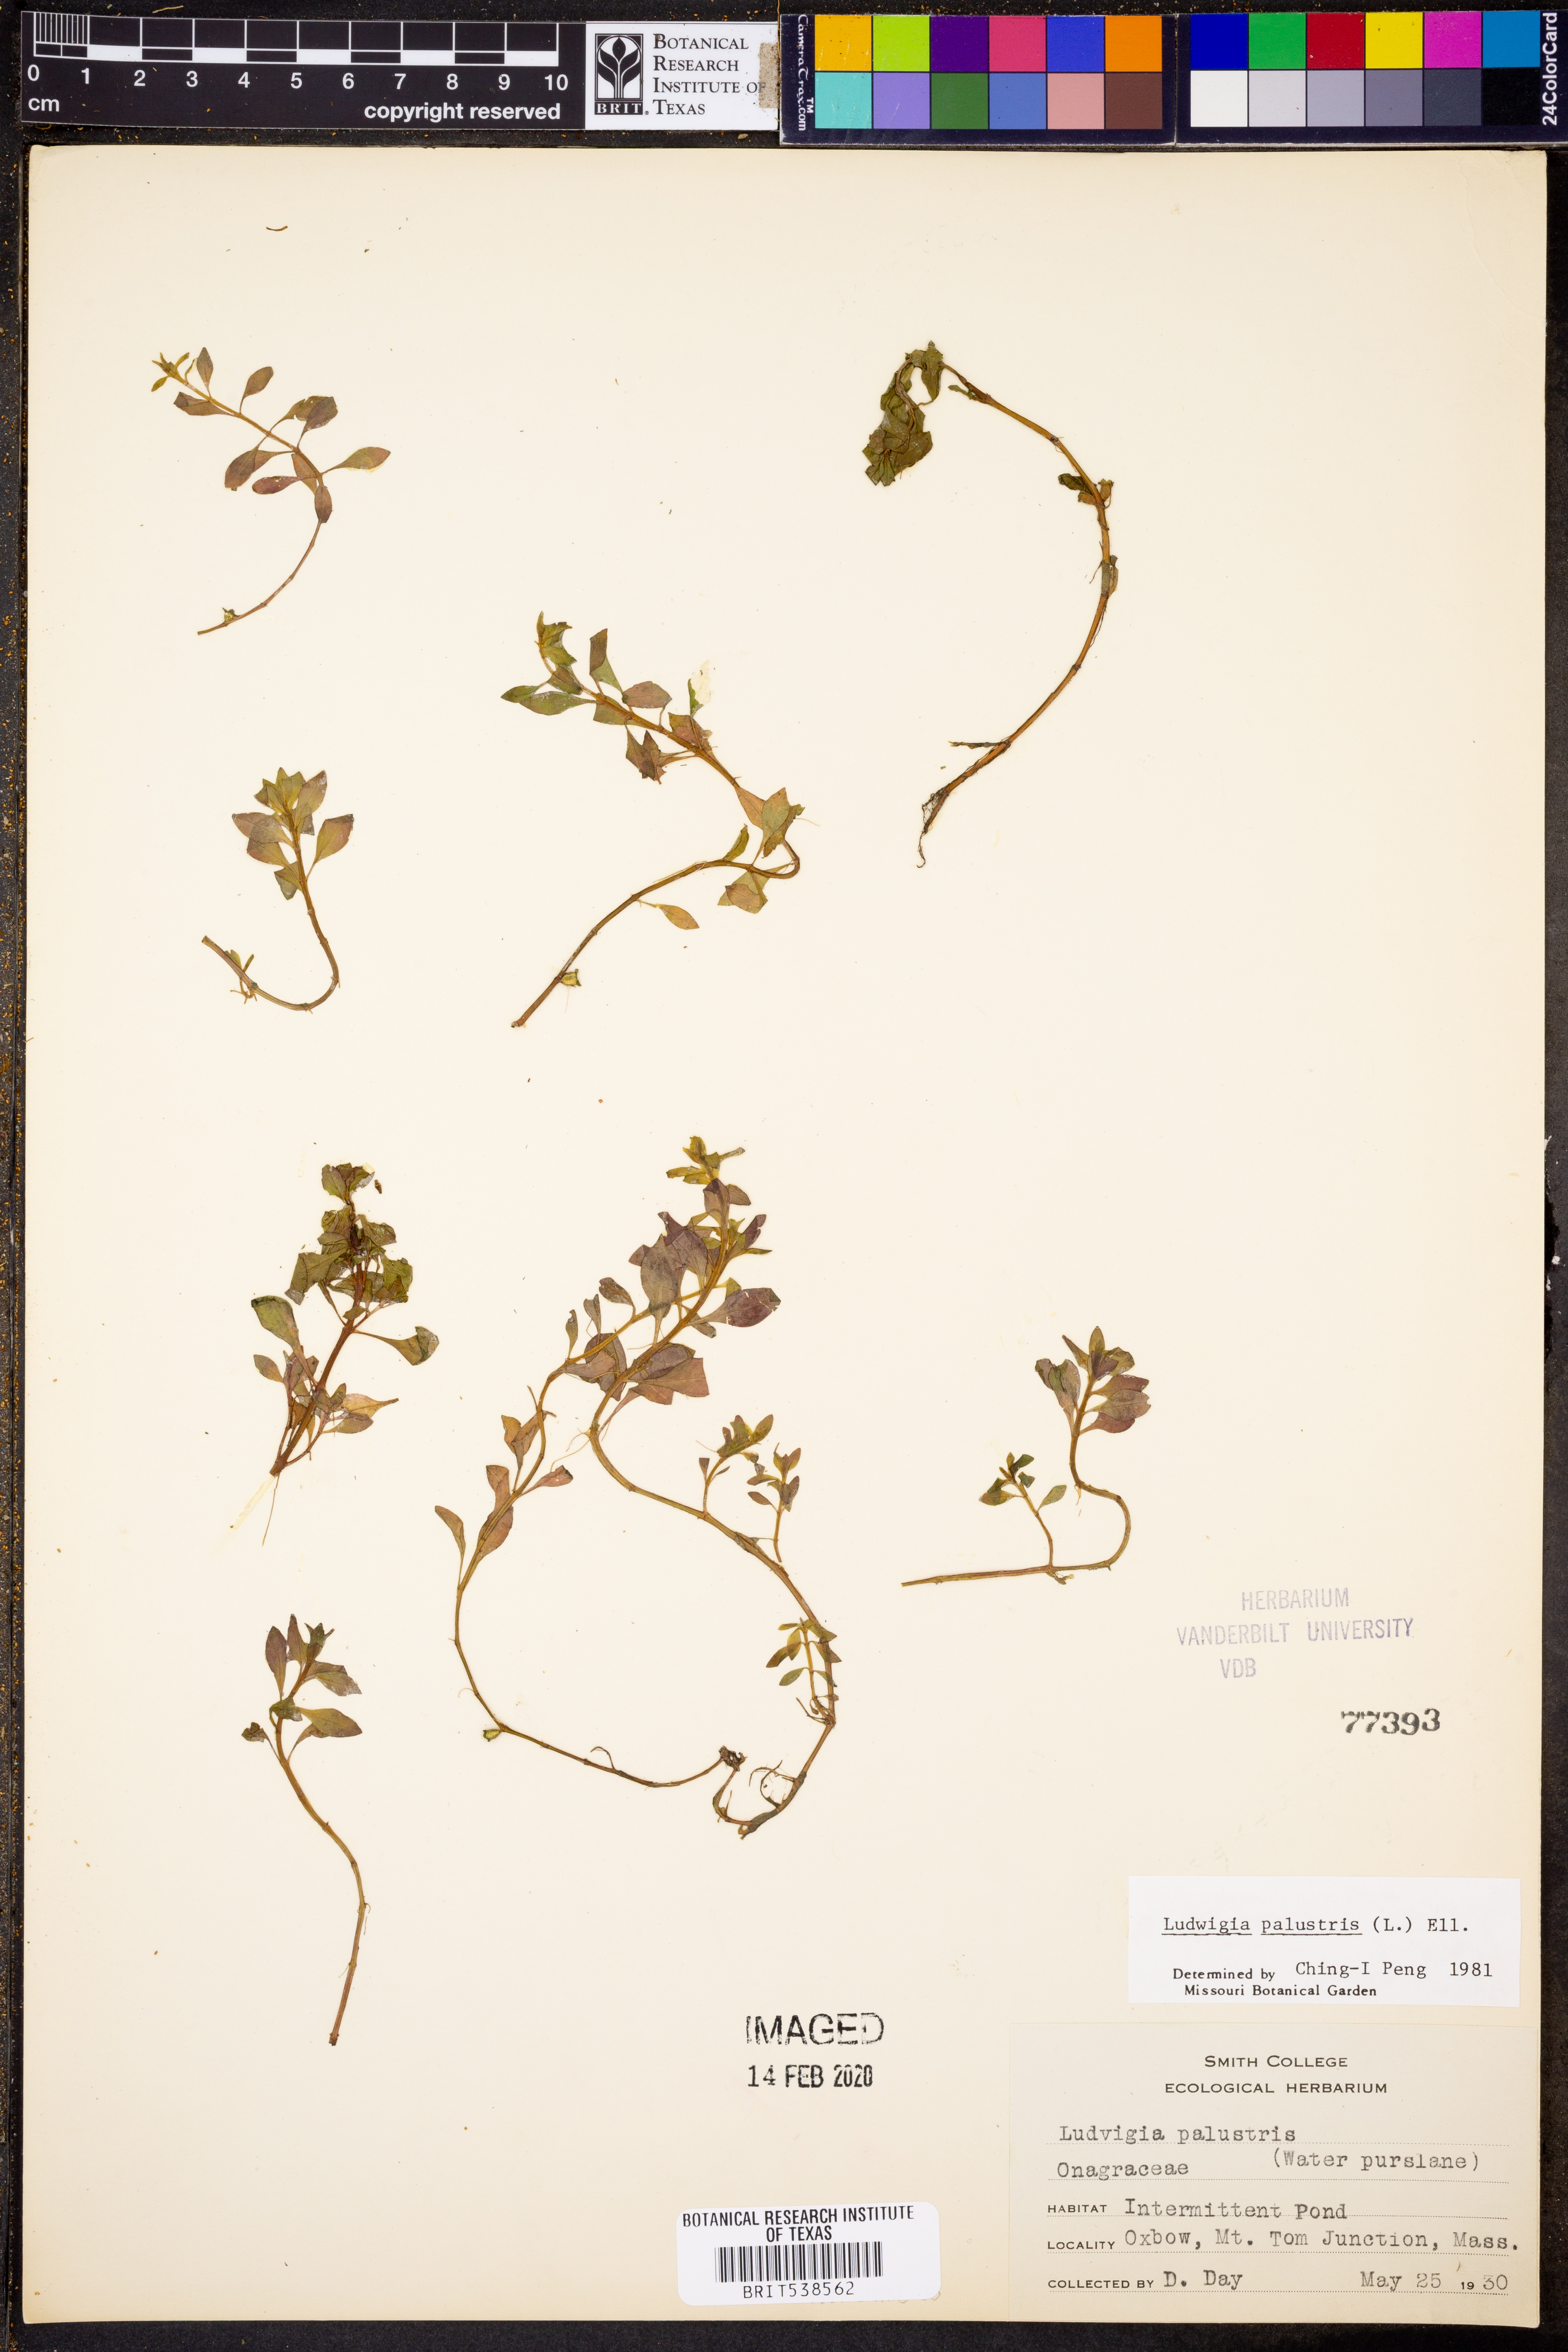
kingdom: Plantae
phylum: Tracheophyta
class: Magnoliopsida
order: Myrtales
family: Onagraceae
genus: Ludwigia
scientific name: Ludwigia palustris
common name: Hampshire-purslane
